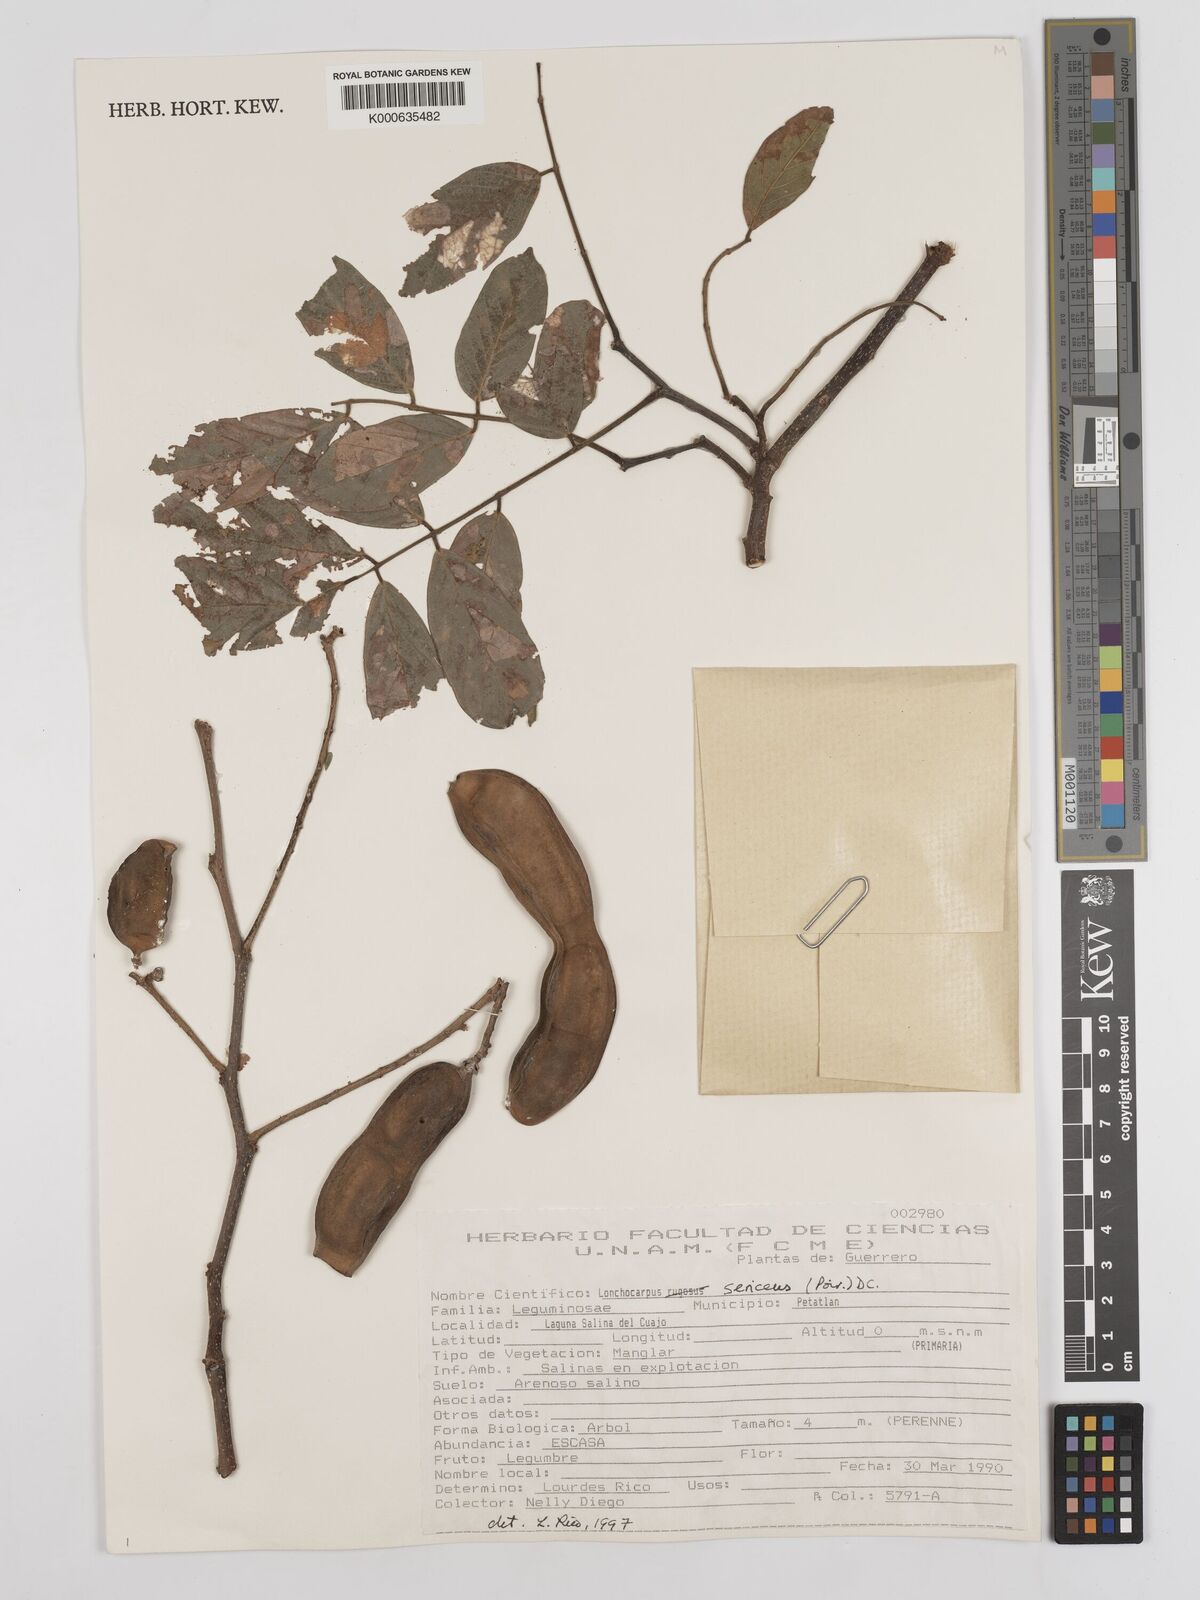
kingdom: Plantae
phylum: Tracheophyta
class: Magnoliopsida
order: Fabales
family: Fabaceae
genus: Lonchocarpus
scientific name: Lonchocarpus palmeri
